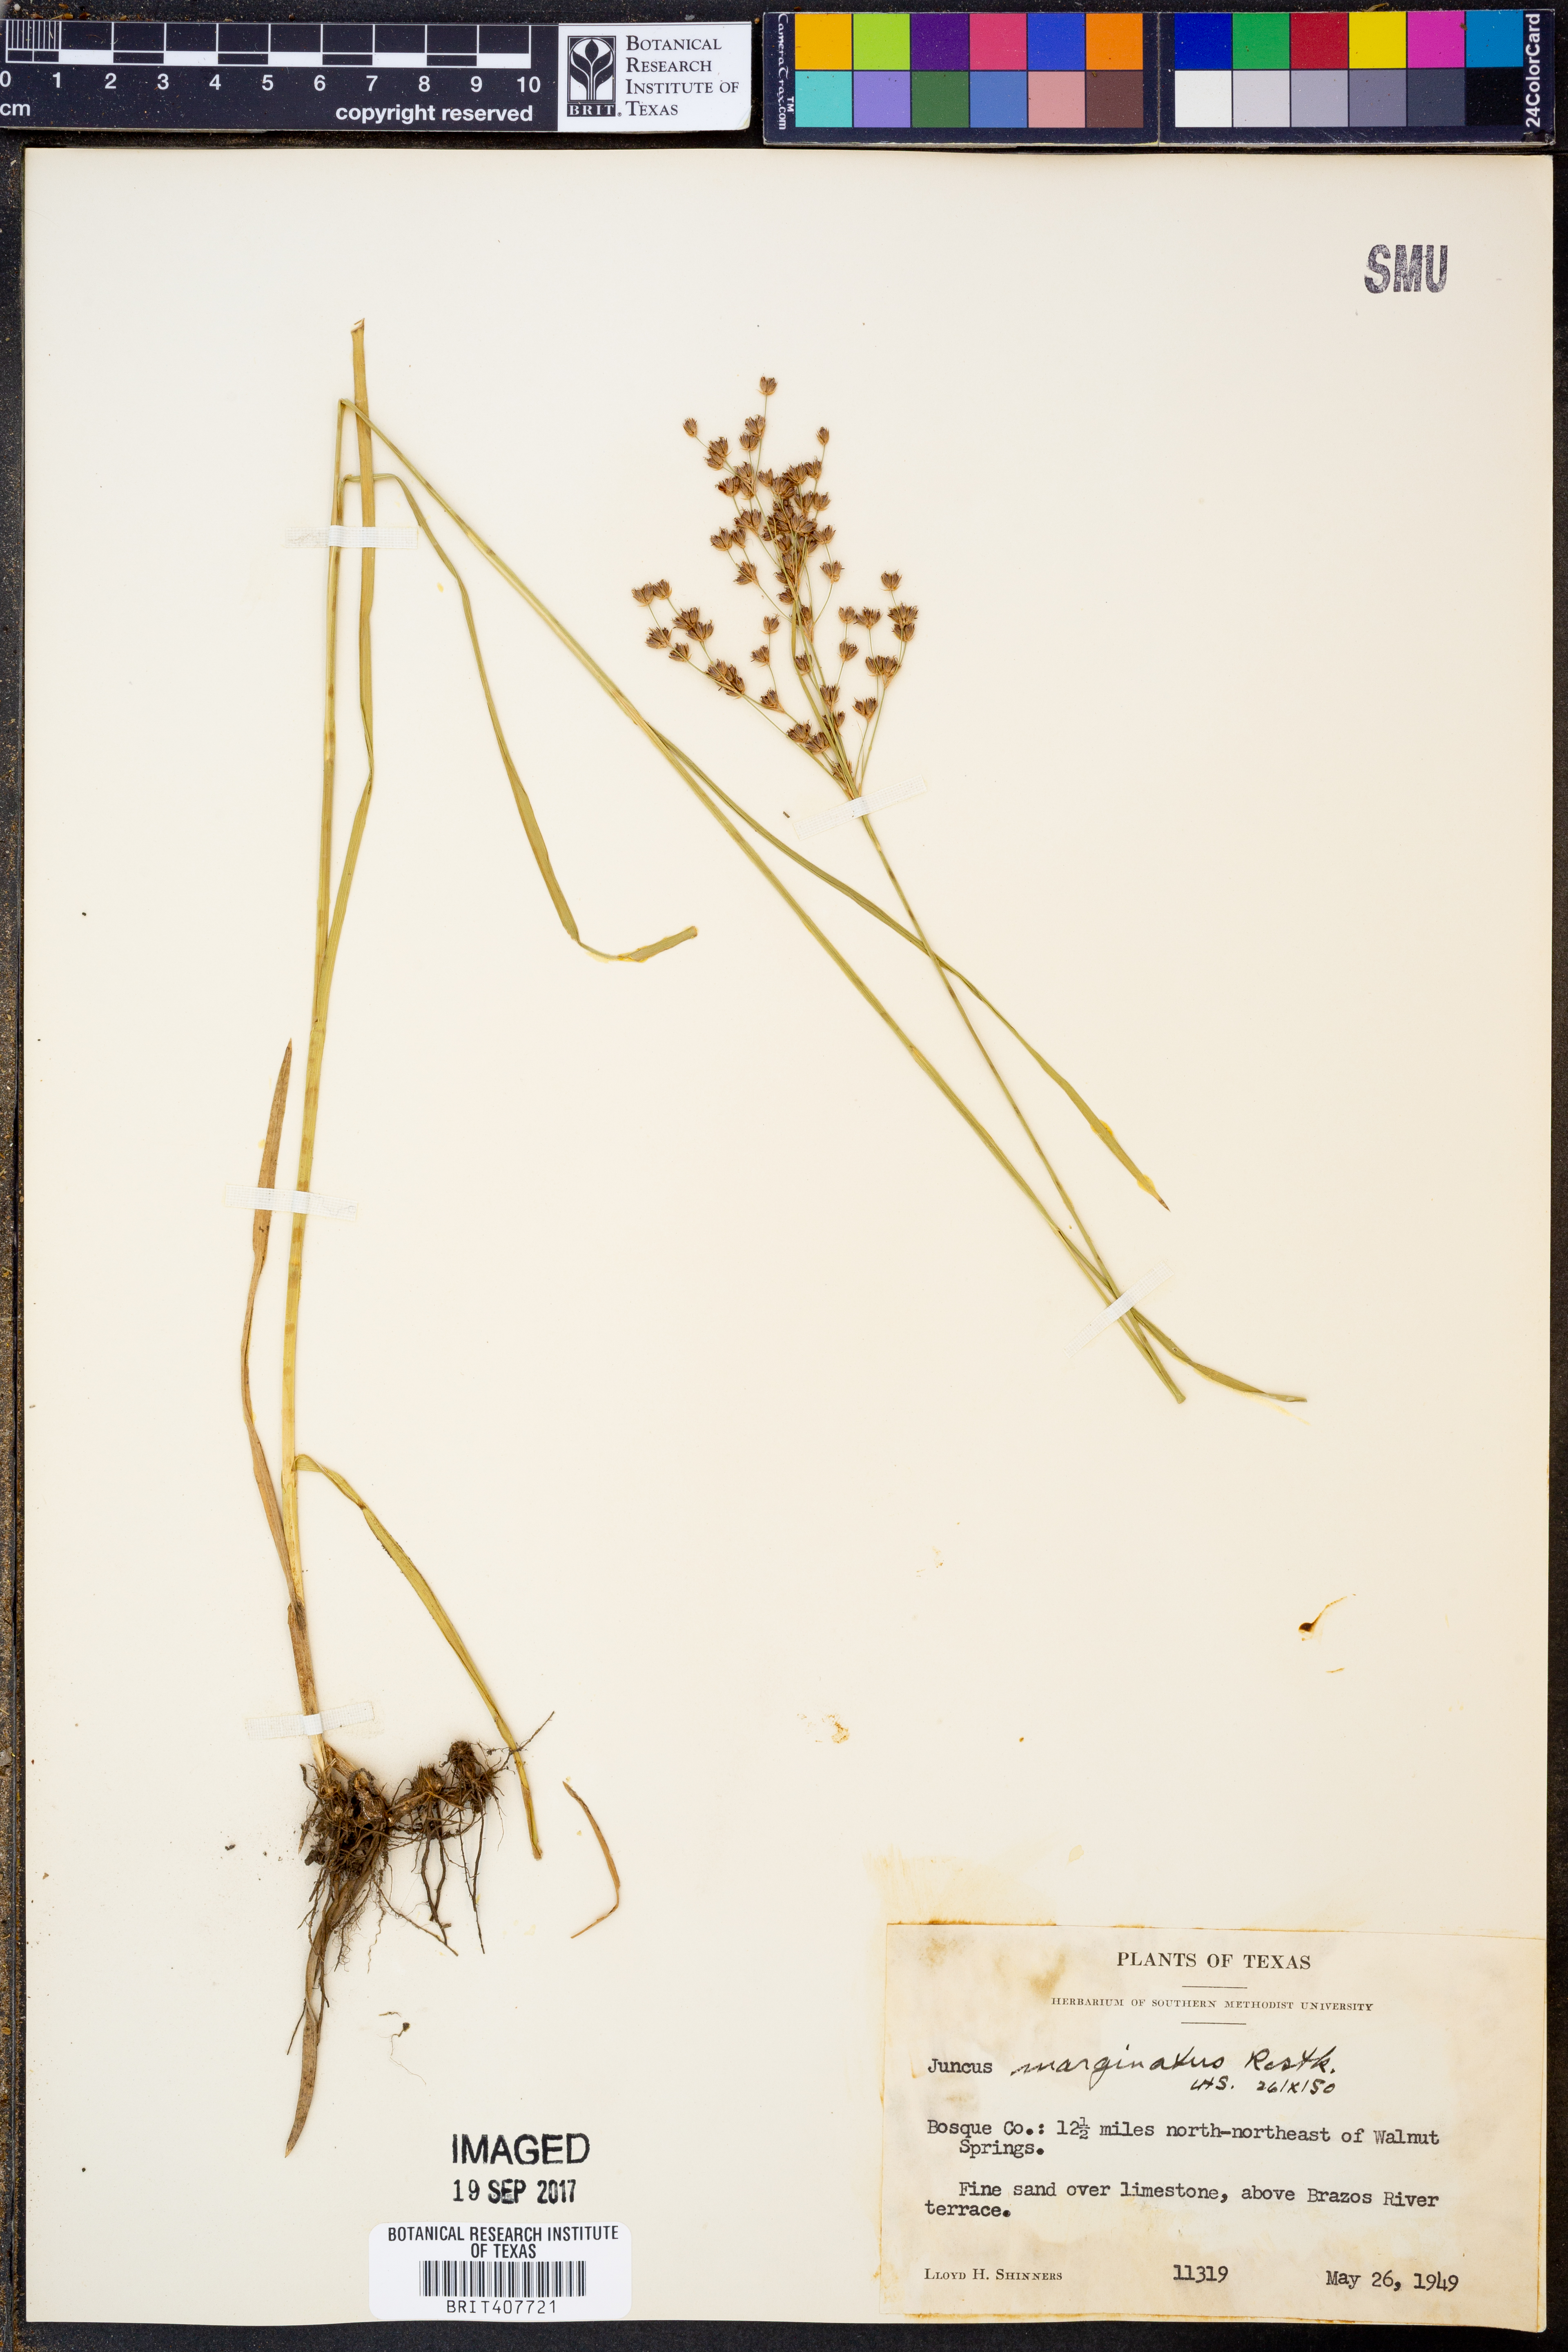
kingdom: Plantae
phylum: Tracheophyta
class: Liliopsida
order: Poales
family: Juncaceae
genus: Juncus
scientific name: Juncus marginatus
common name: Grass-leaf rush
